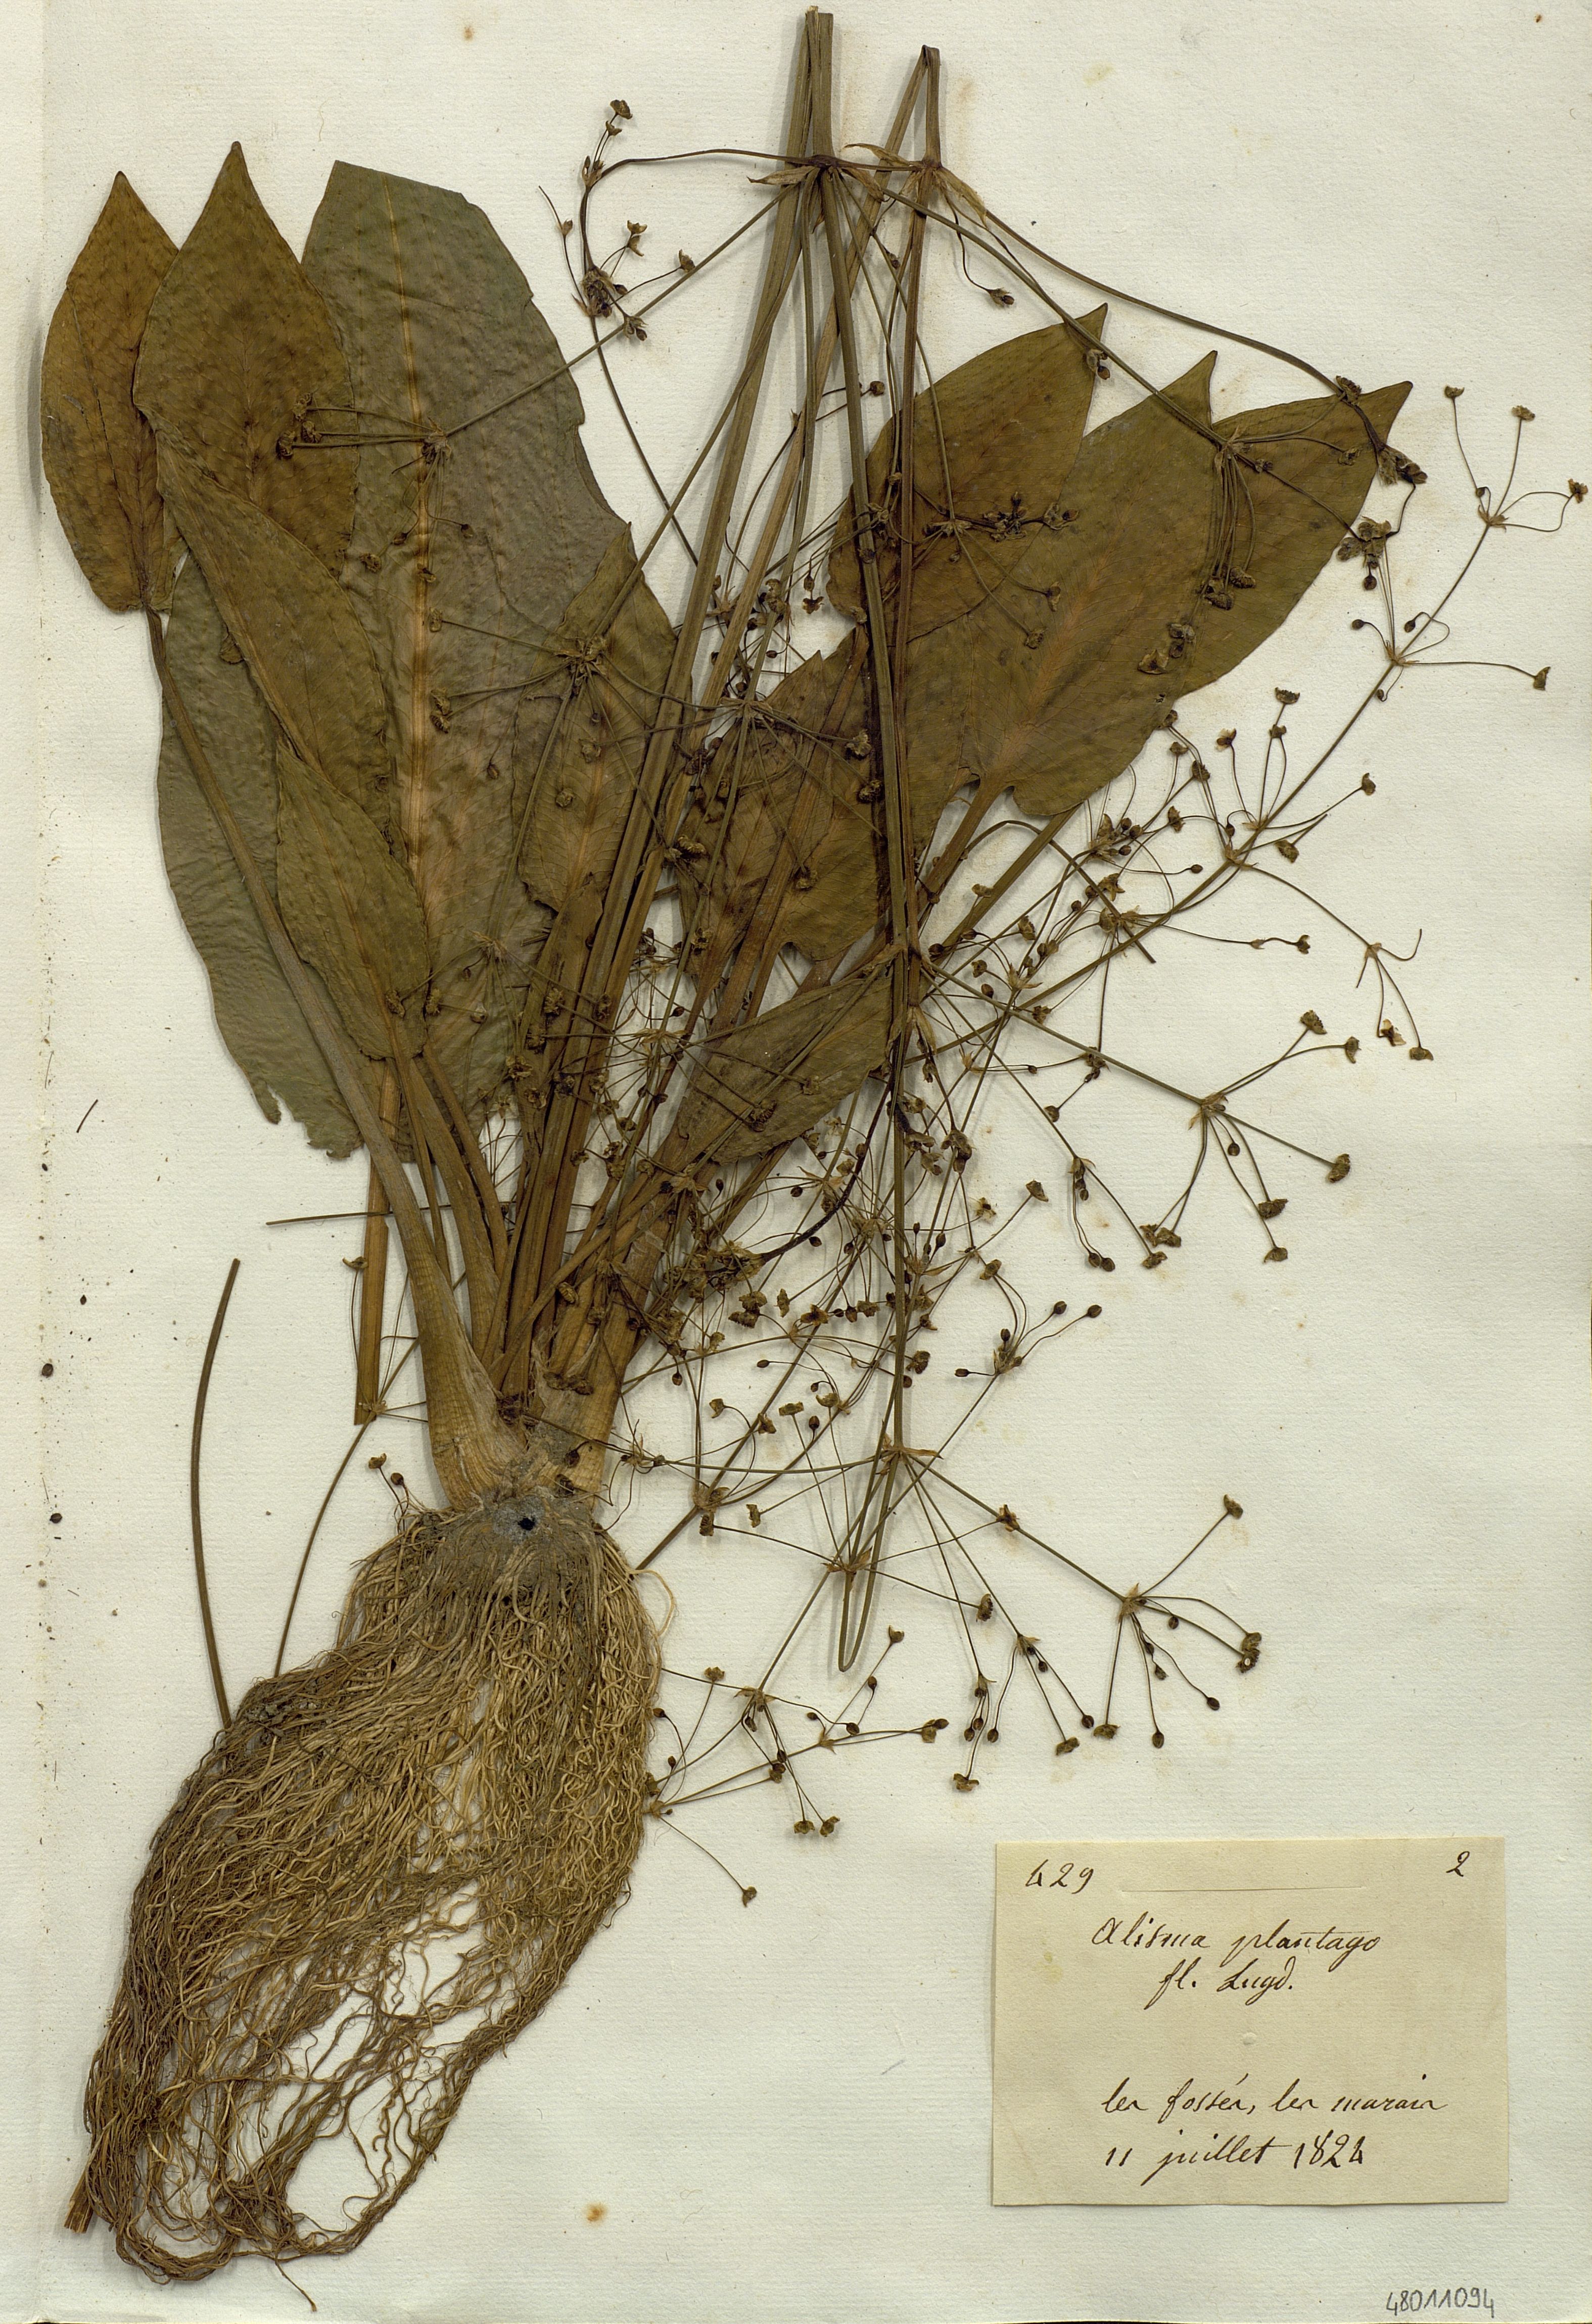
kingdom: Plantae
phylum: Tracheophyta
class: Liliopsida
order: Alismatales
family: Alismataceae
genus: Alisma
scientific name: Alisma plantago-aquatica
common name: Water-plantain
